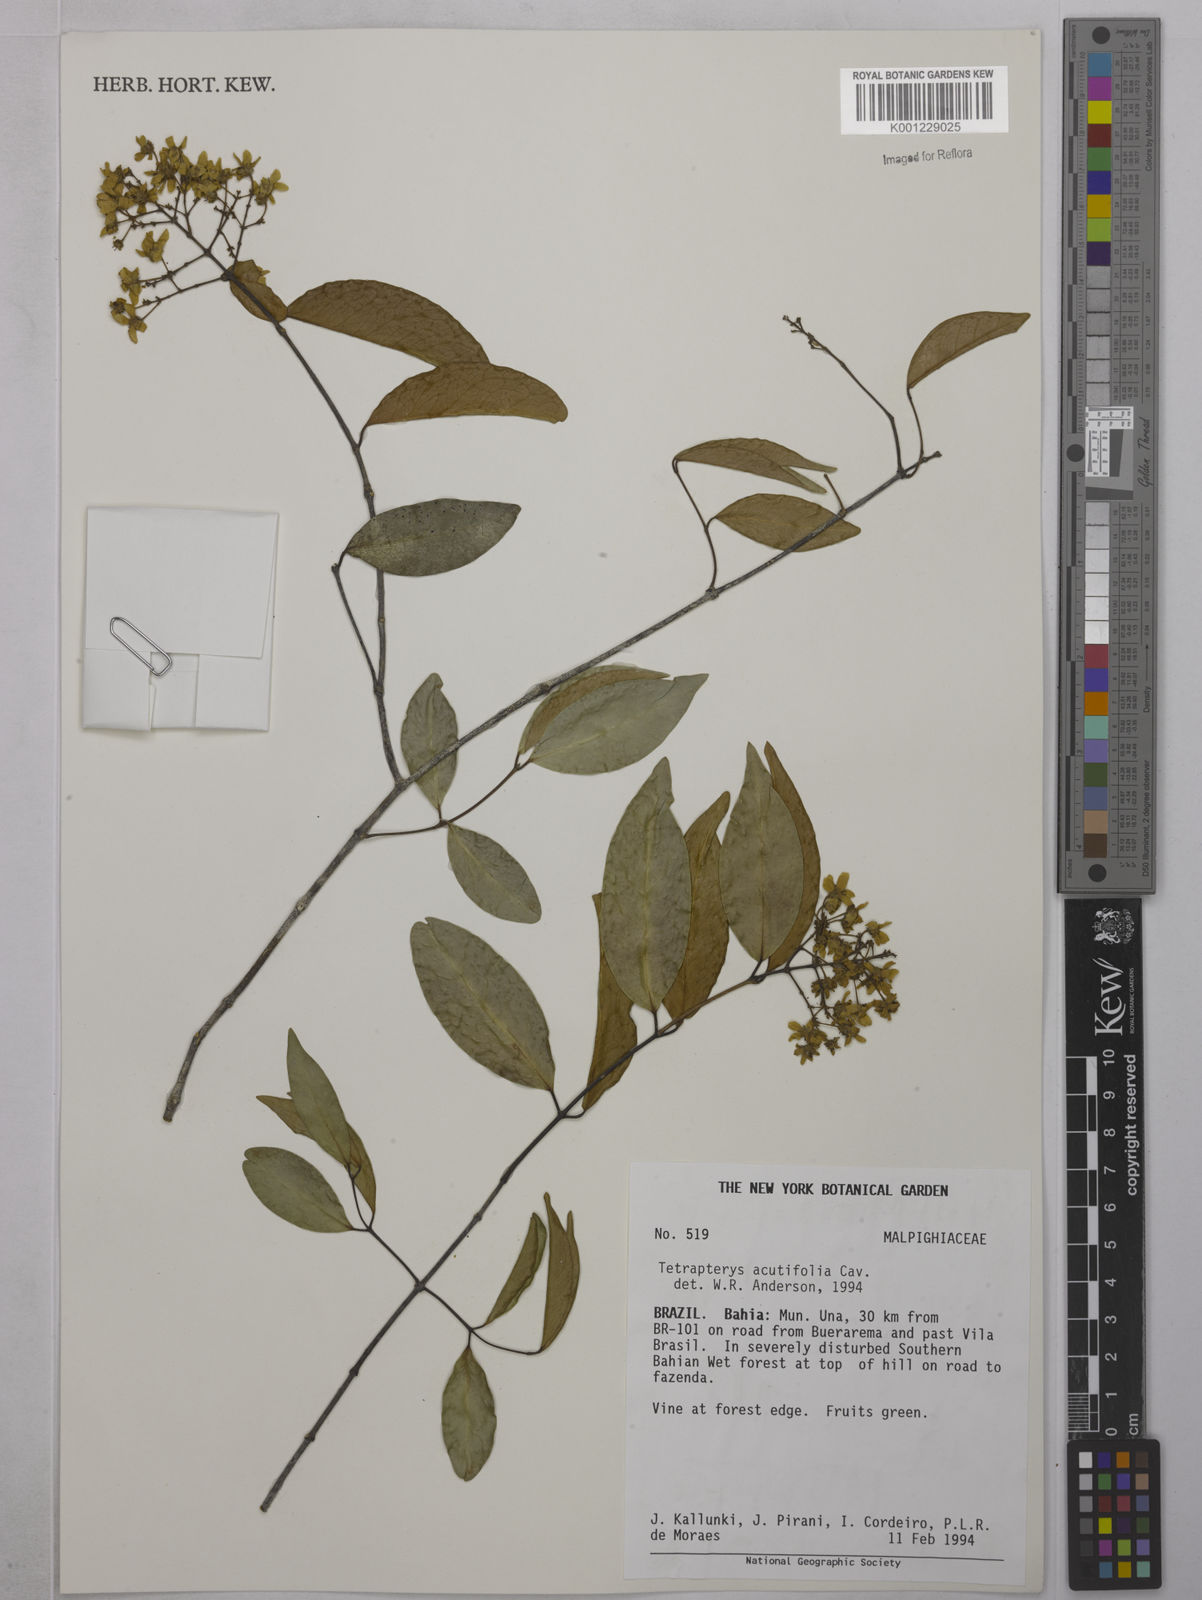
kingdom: Plantae
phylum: Tracheophyta
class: Magnoliopsida
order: Malpighiales
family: Malpighiaceae
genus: Niedenzuella
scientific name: Niedenzuella acutifolia
